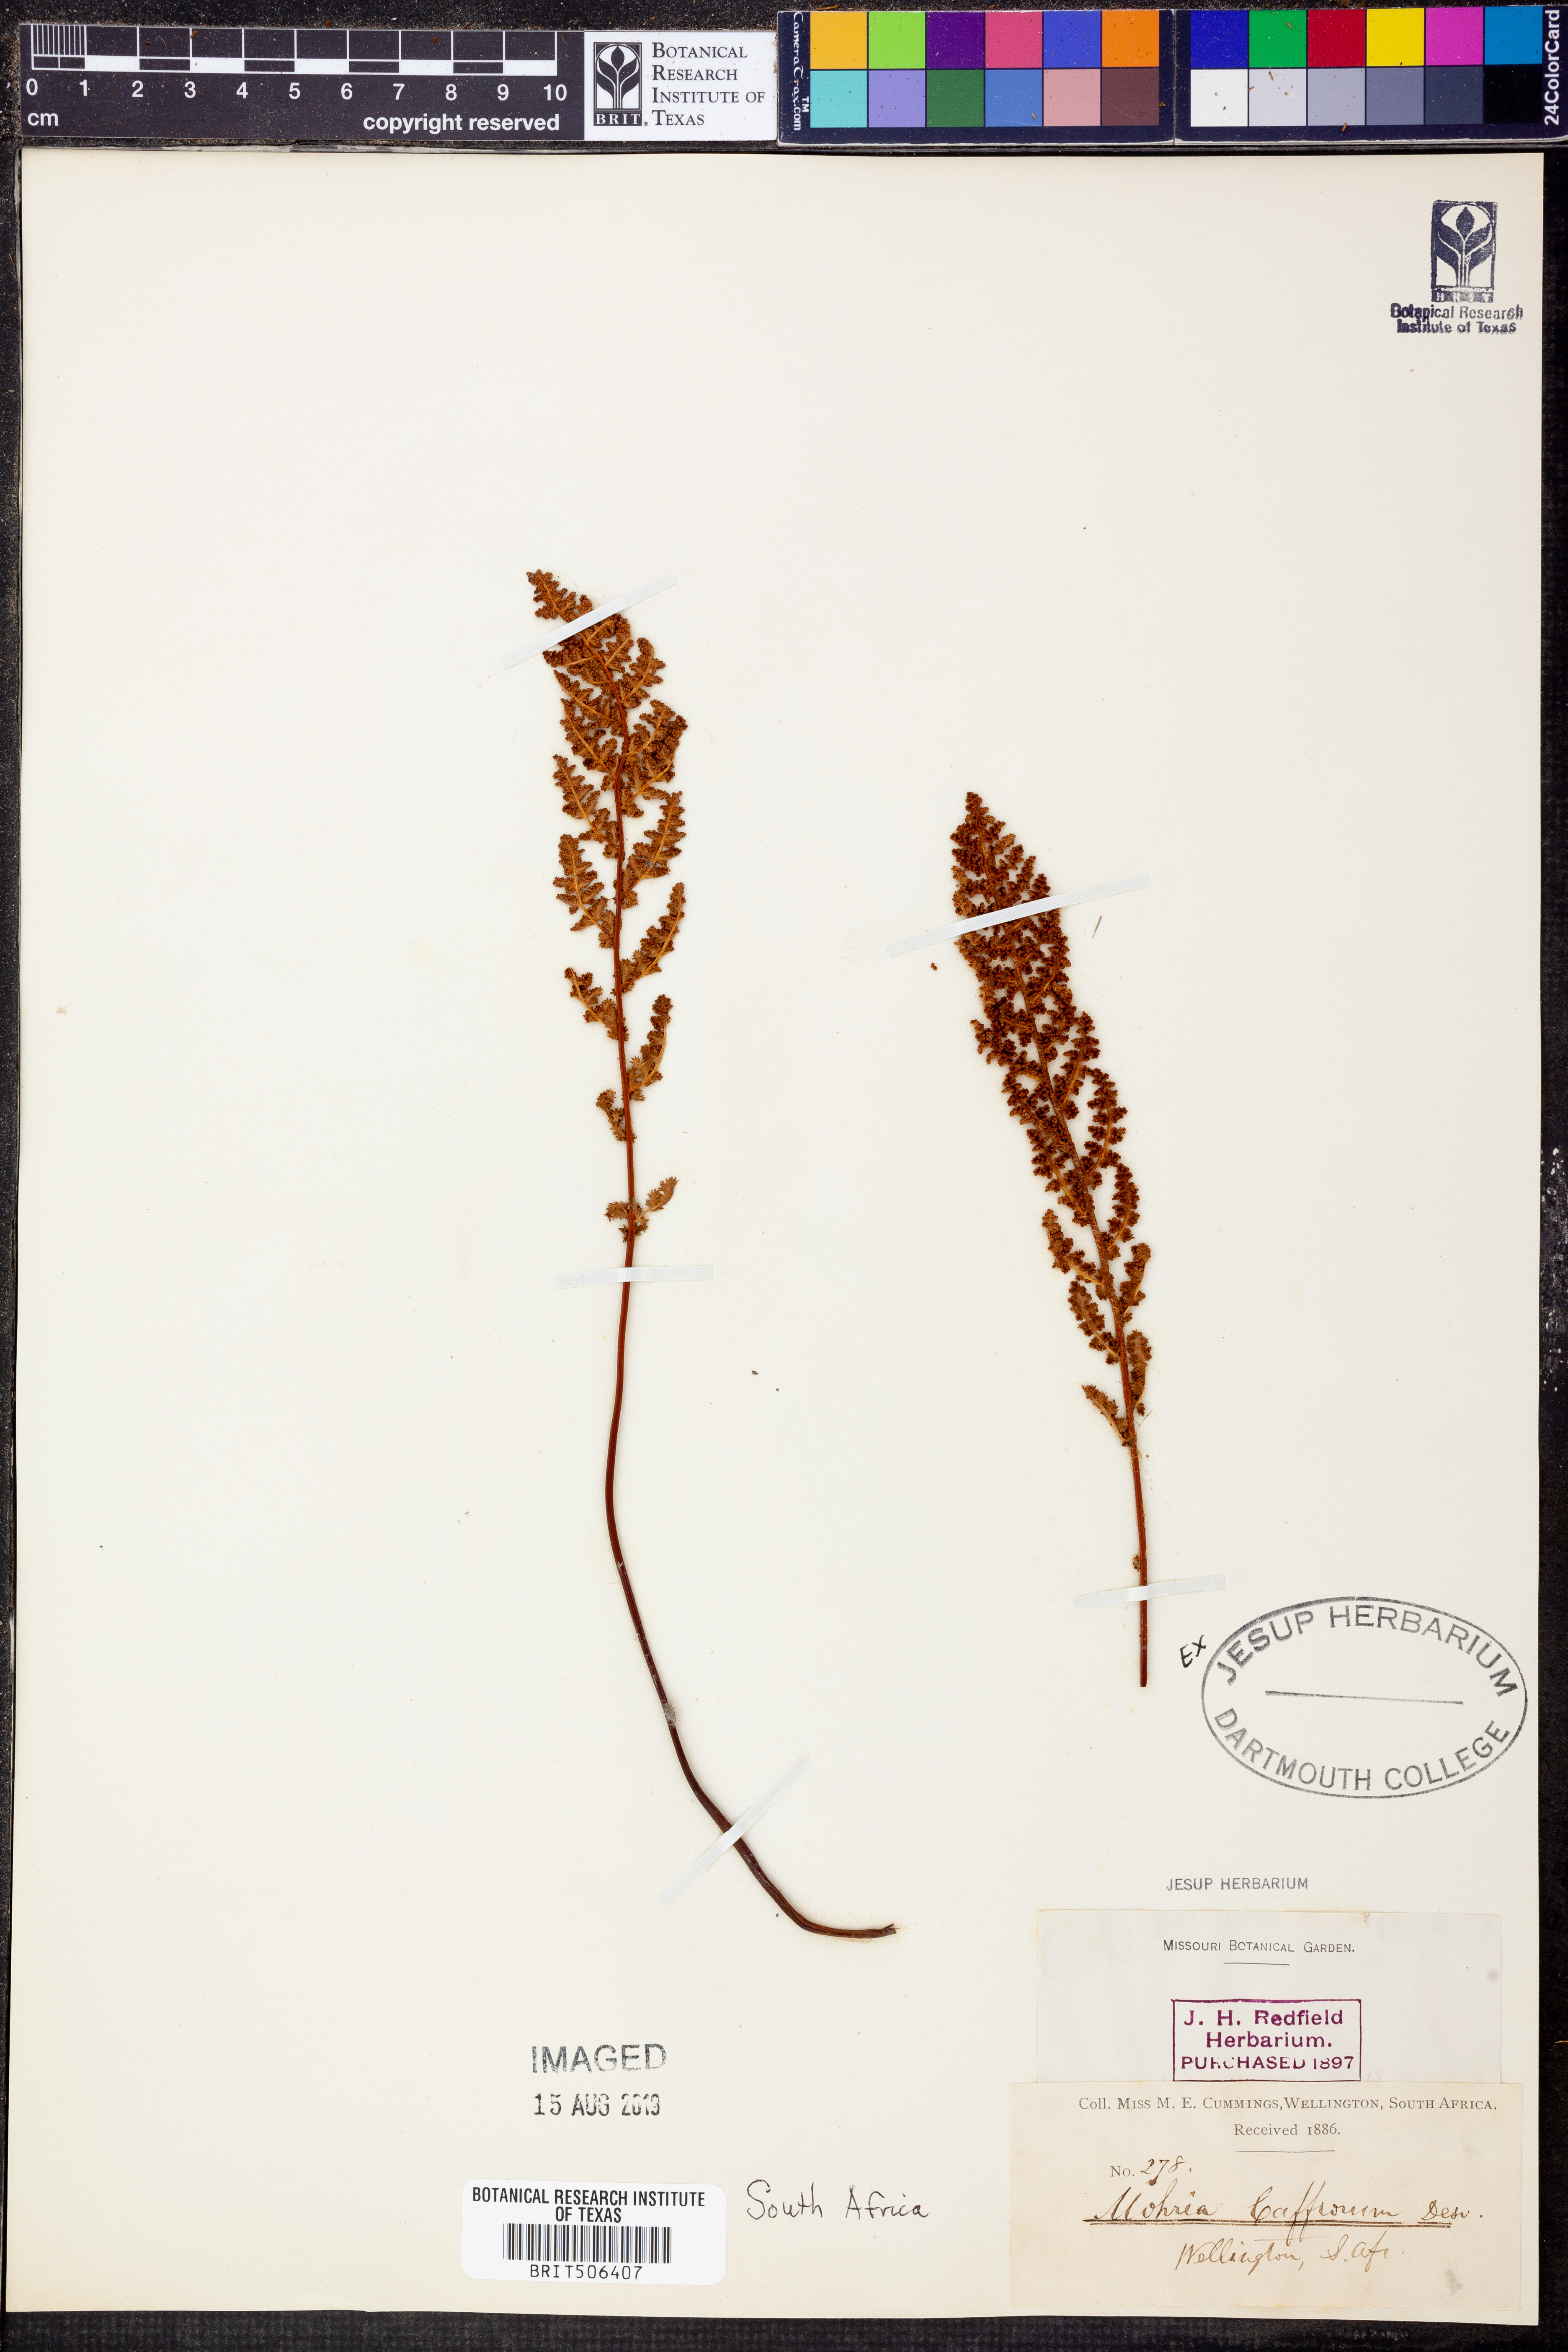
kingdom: Plantae
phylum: Tracheophyta
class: Polypodiopsida
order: Schizaeales
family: Anemiaceae
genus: Anemia
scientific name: Anemia caffrorum
